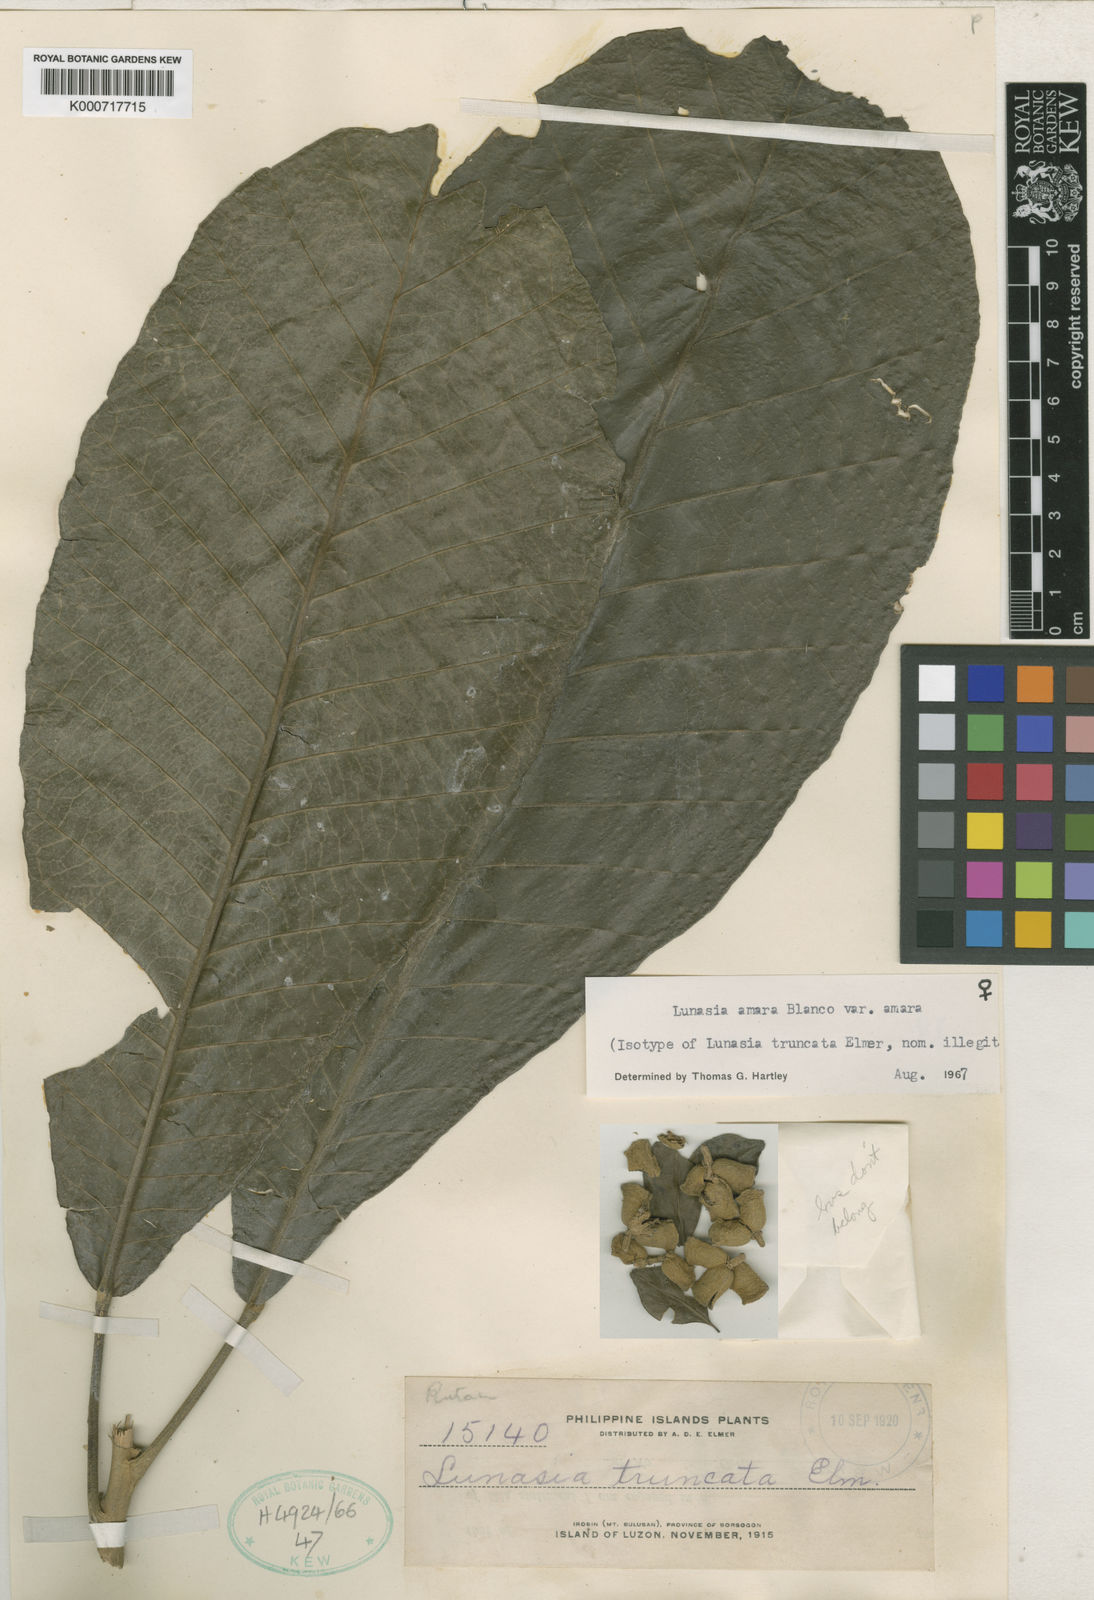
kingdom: Plantae
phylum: Tracheophyta
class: Magnoliopsida
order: Sapindales
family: Rutaceae
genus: Lunasia
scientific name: Lunasia amara
